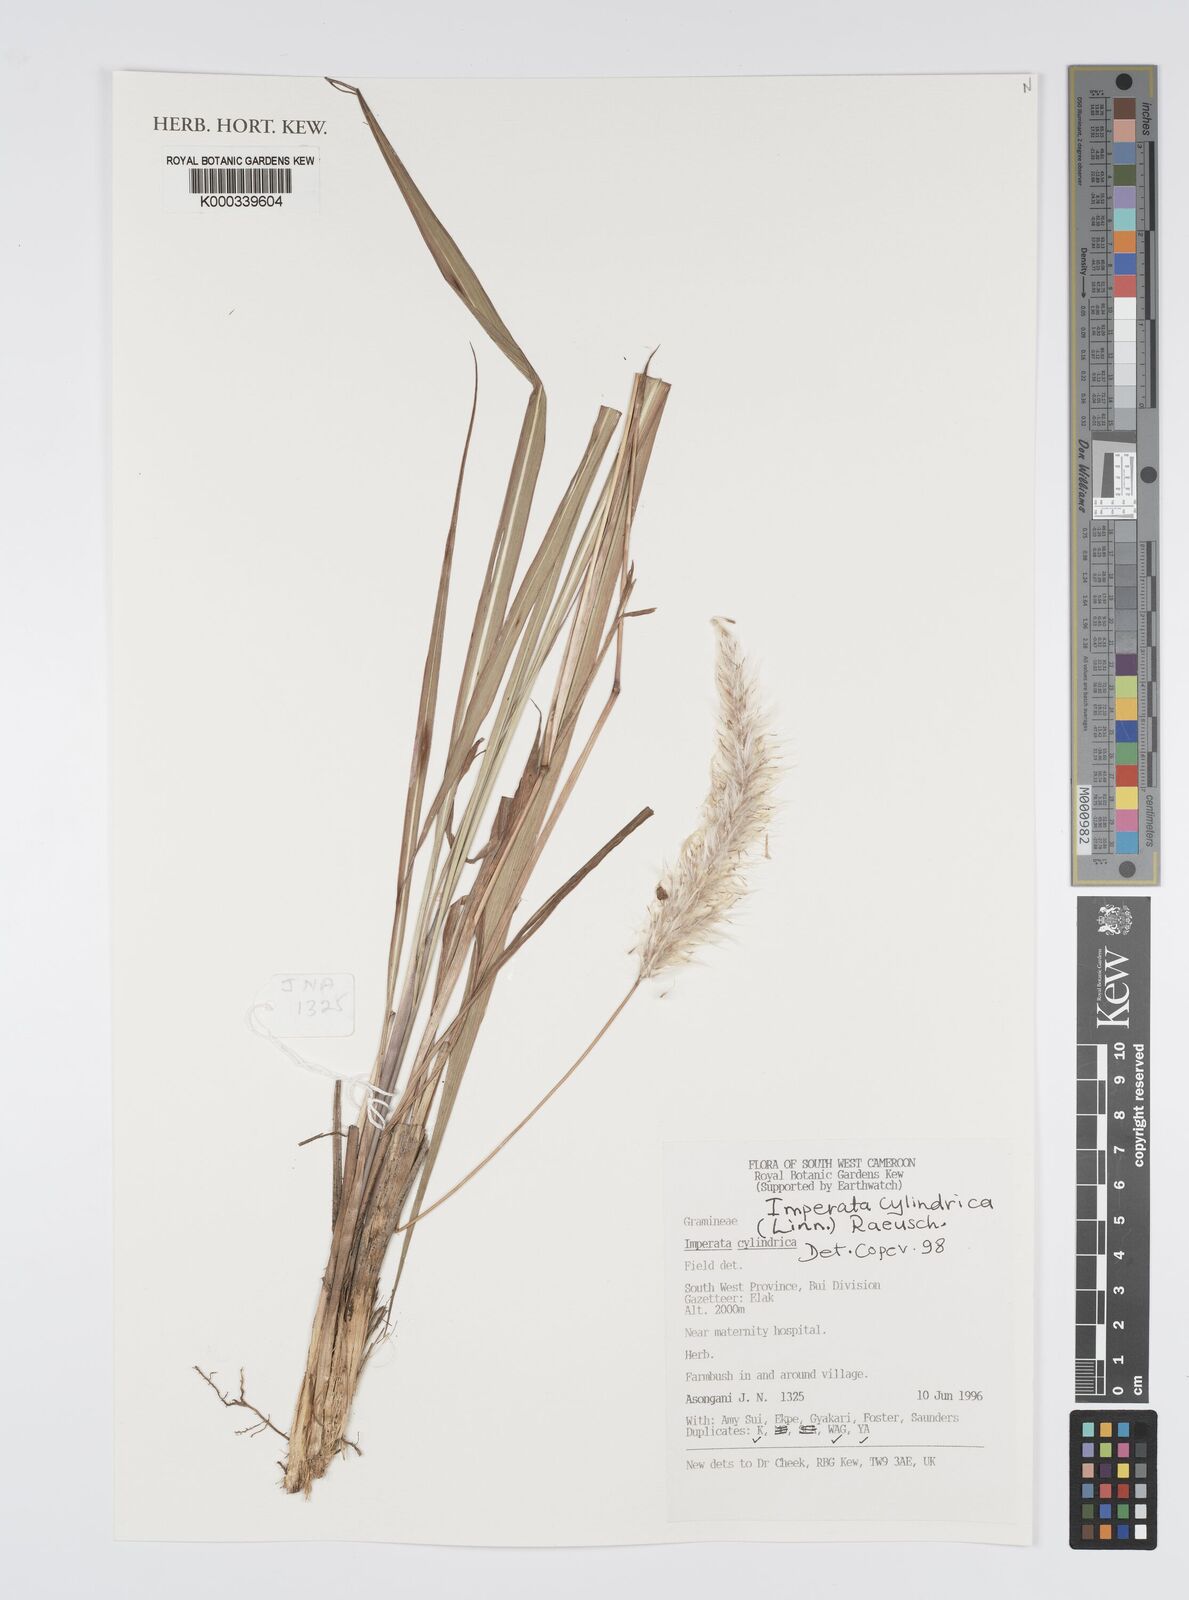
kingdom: Plantae
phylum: Tracheophyta
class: Liliopsida
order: Poales
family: Poaceae
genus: Imperata
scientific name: Imperata
